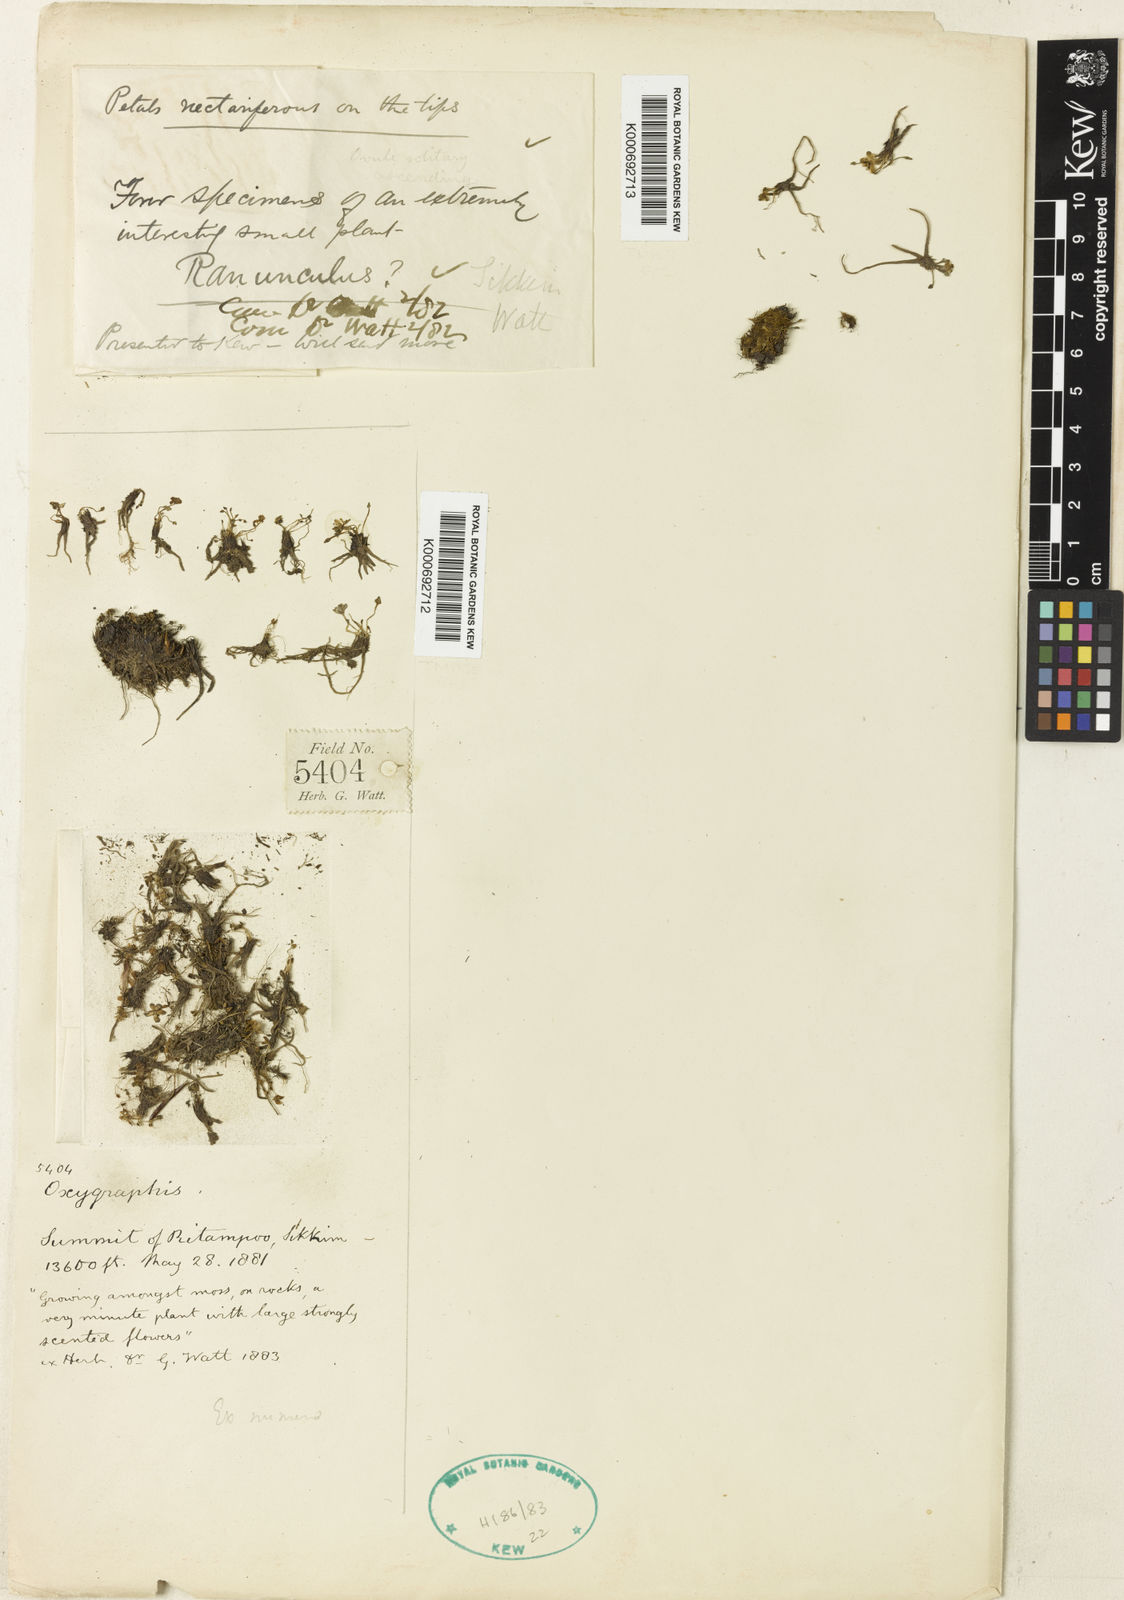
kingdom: Plantae
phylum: Tracheophyta
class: Magnoliopsida
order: Ranunculales
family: Ranunculaceae
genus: Ranunculus
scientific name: Ranunculus
